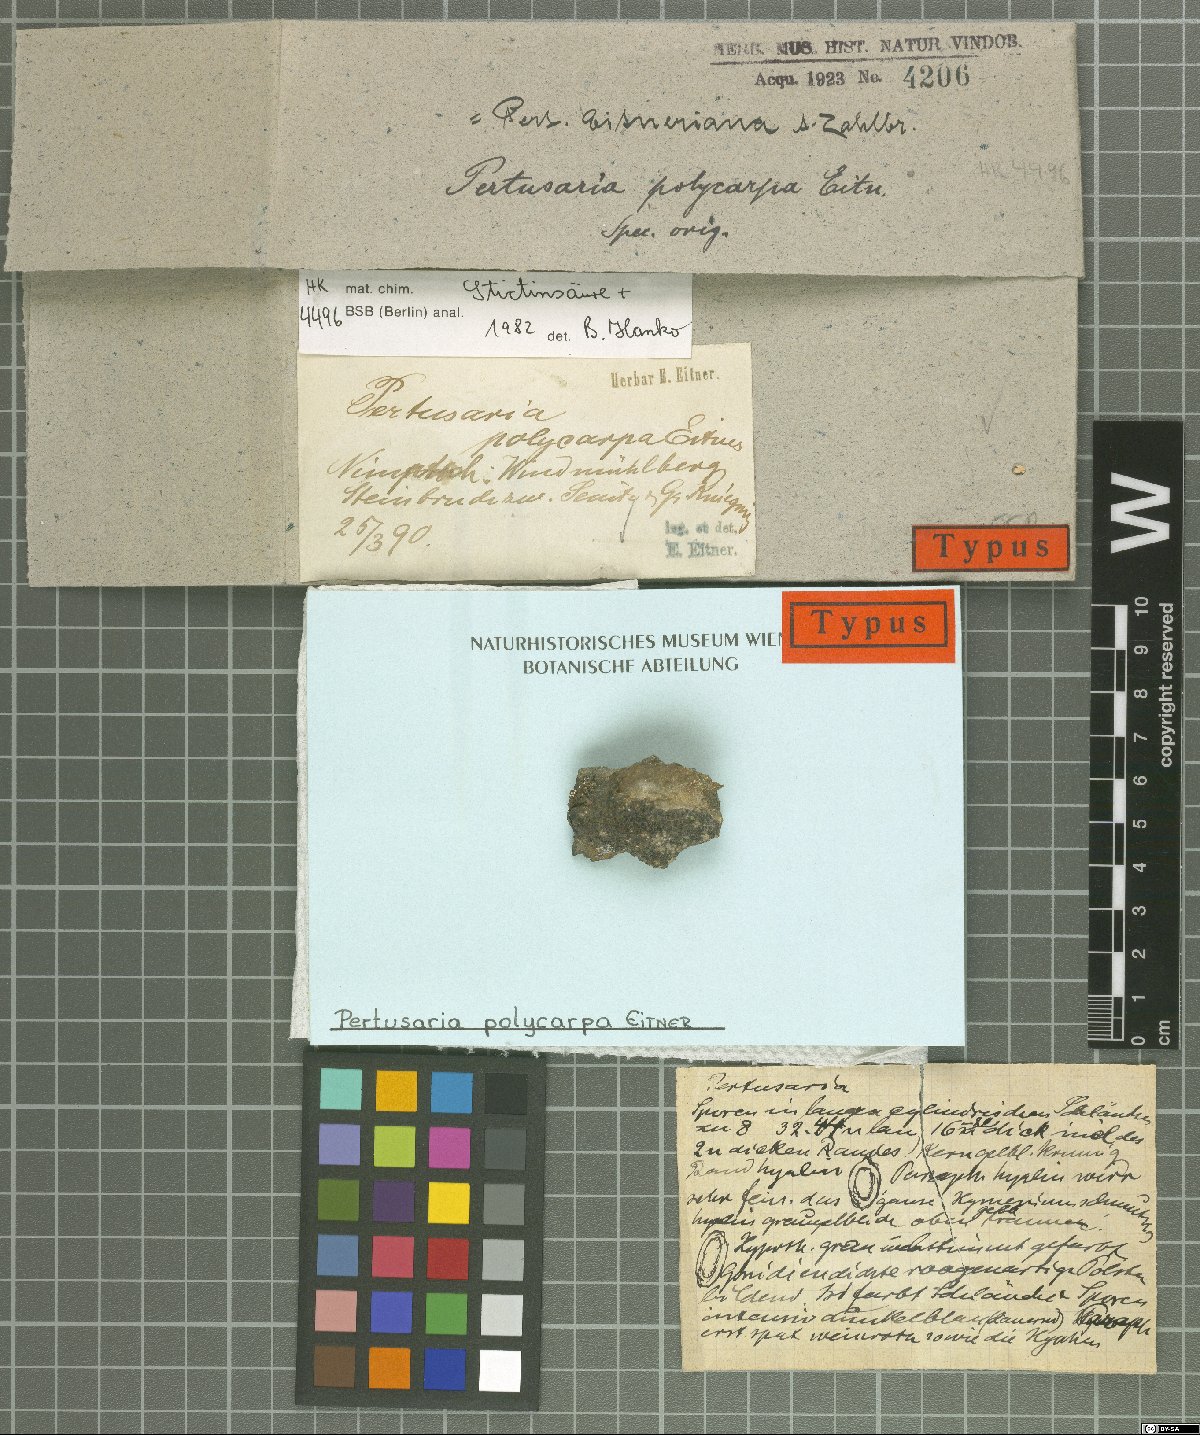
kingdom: Fungi
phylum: Ascomycota
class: Lecanoromycetes
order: Pertusariales
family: Pertusariaceae
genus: Pertusaria
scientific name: Pertusaria eitneriana
